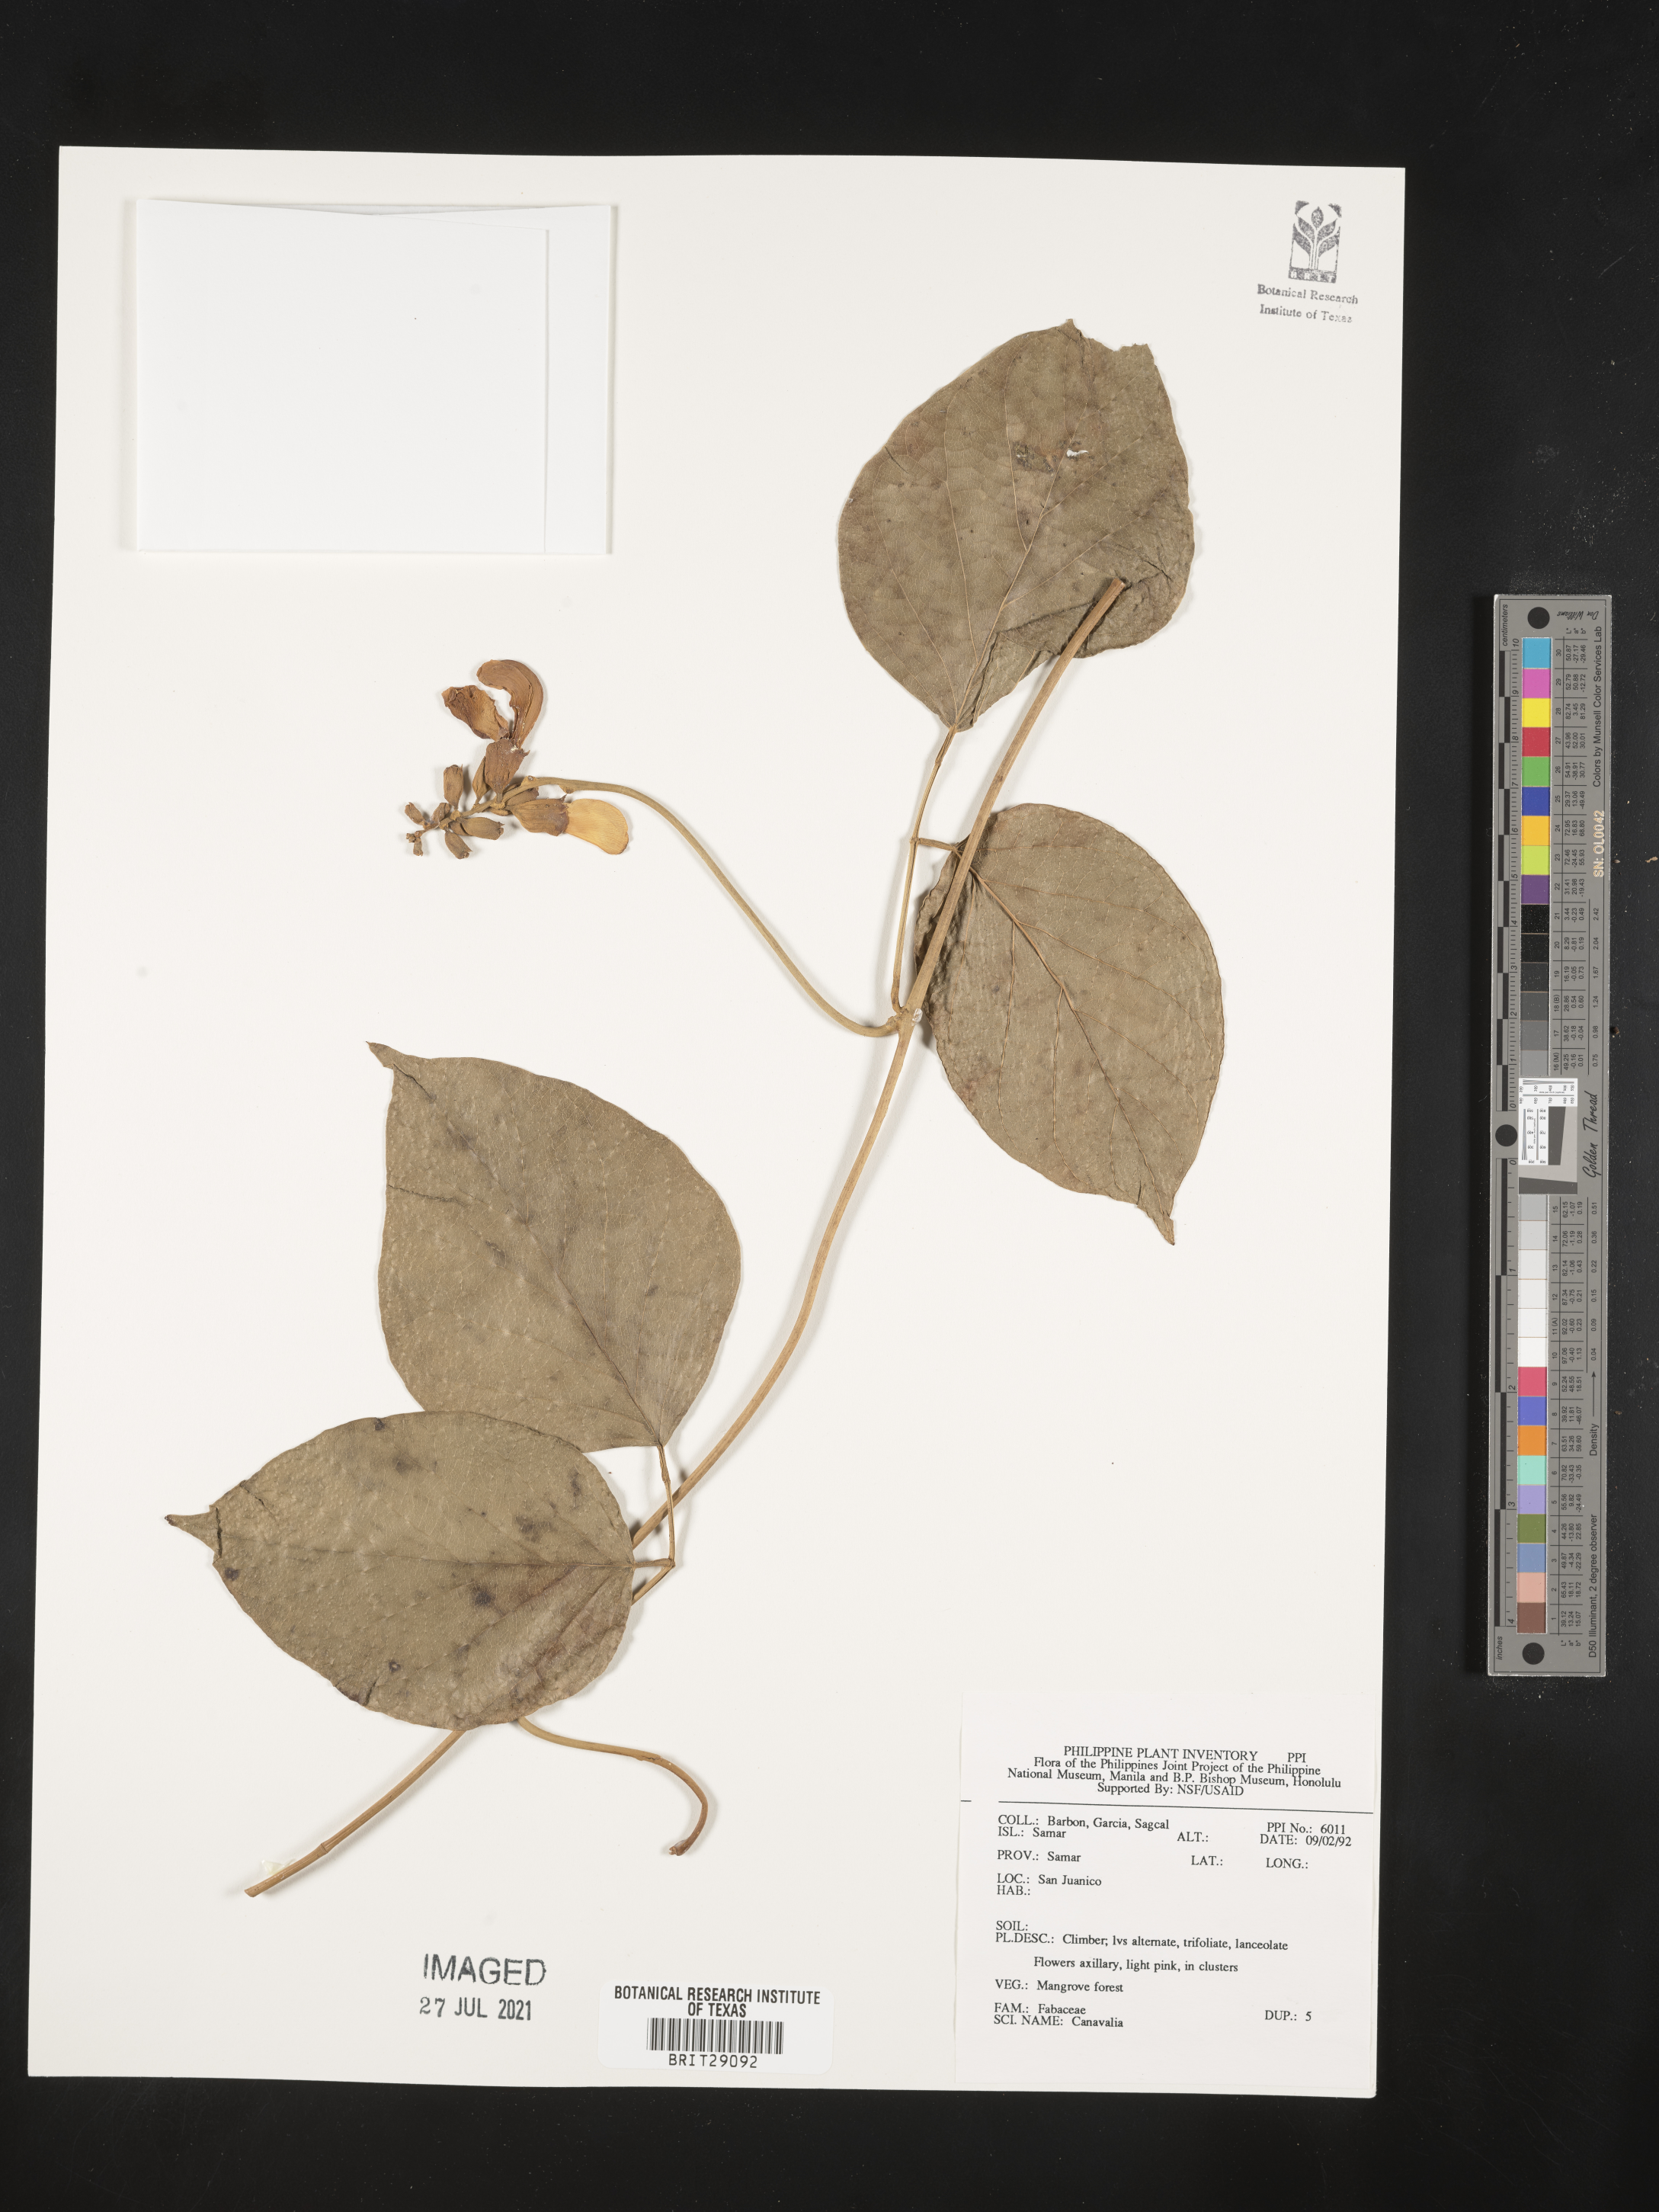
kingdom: Plantae
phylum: Tracheophyta
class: Magnoliopsida
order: Fabales
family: Fabaceae
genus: Canavalia
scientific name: Canavalia
